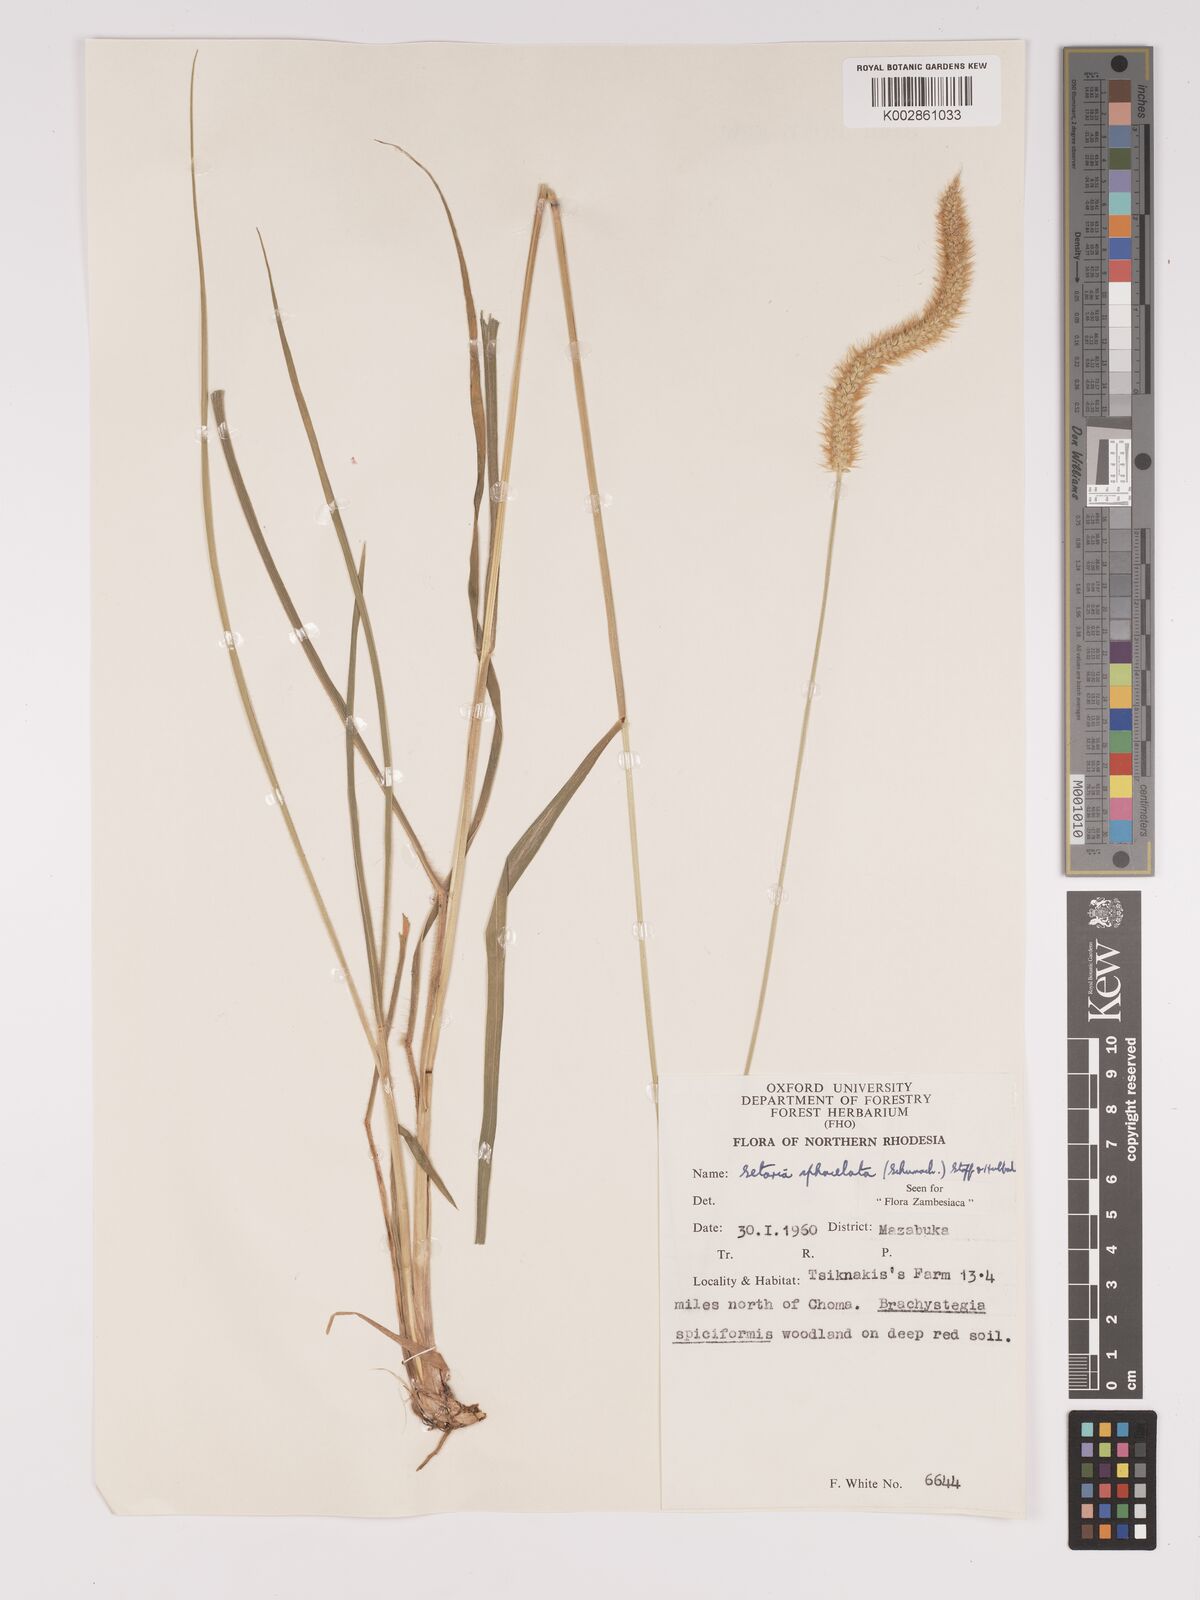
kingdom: Plantae
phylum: Tracheophyta
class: Liliopsida
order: Poales
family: Poaceae
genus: Setaria
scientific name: Setaria sphacelata
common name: African bristlegrass
